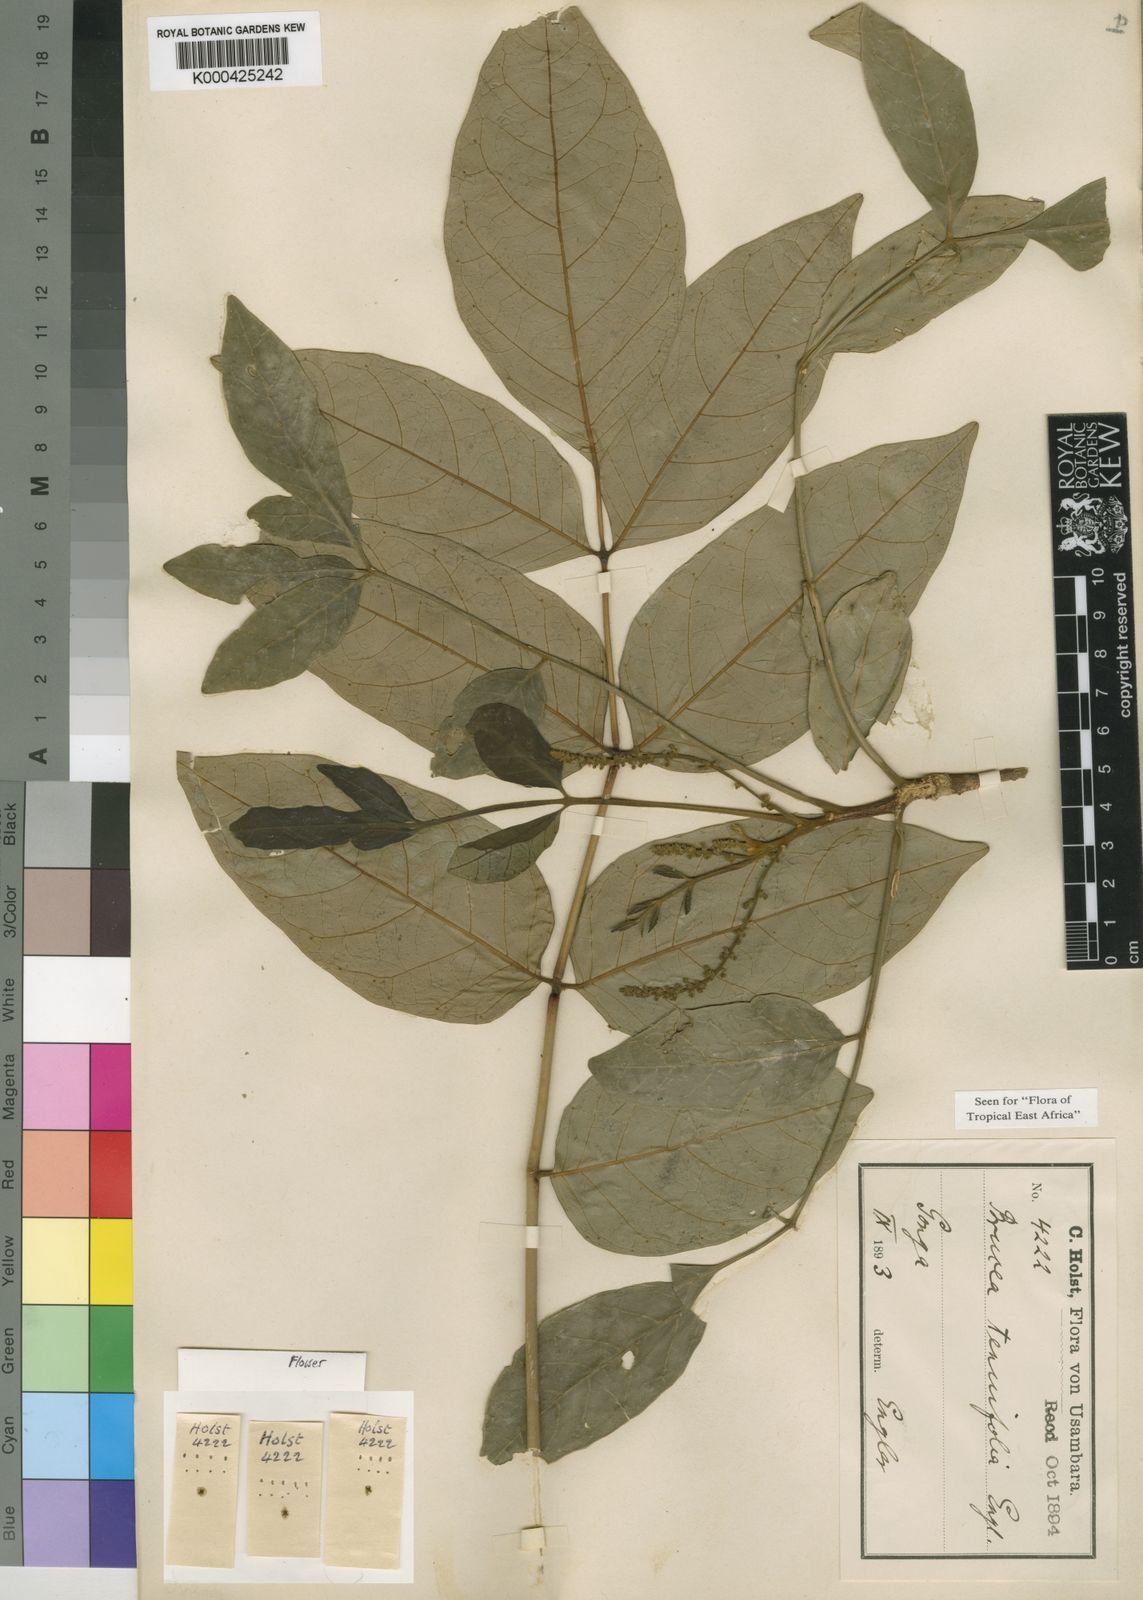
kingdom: Plantae
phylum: Tracheophyta
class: Magnoliopsida
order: Sapindales
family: Simaroubaceae
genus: Brucea
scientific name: Brucea tenuifolia
